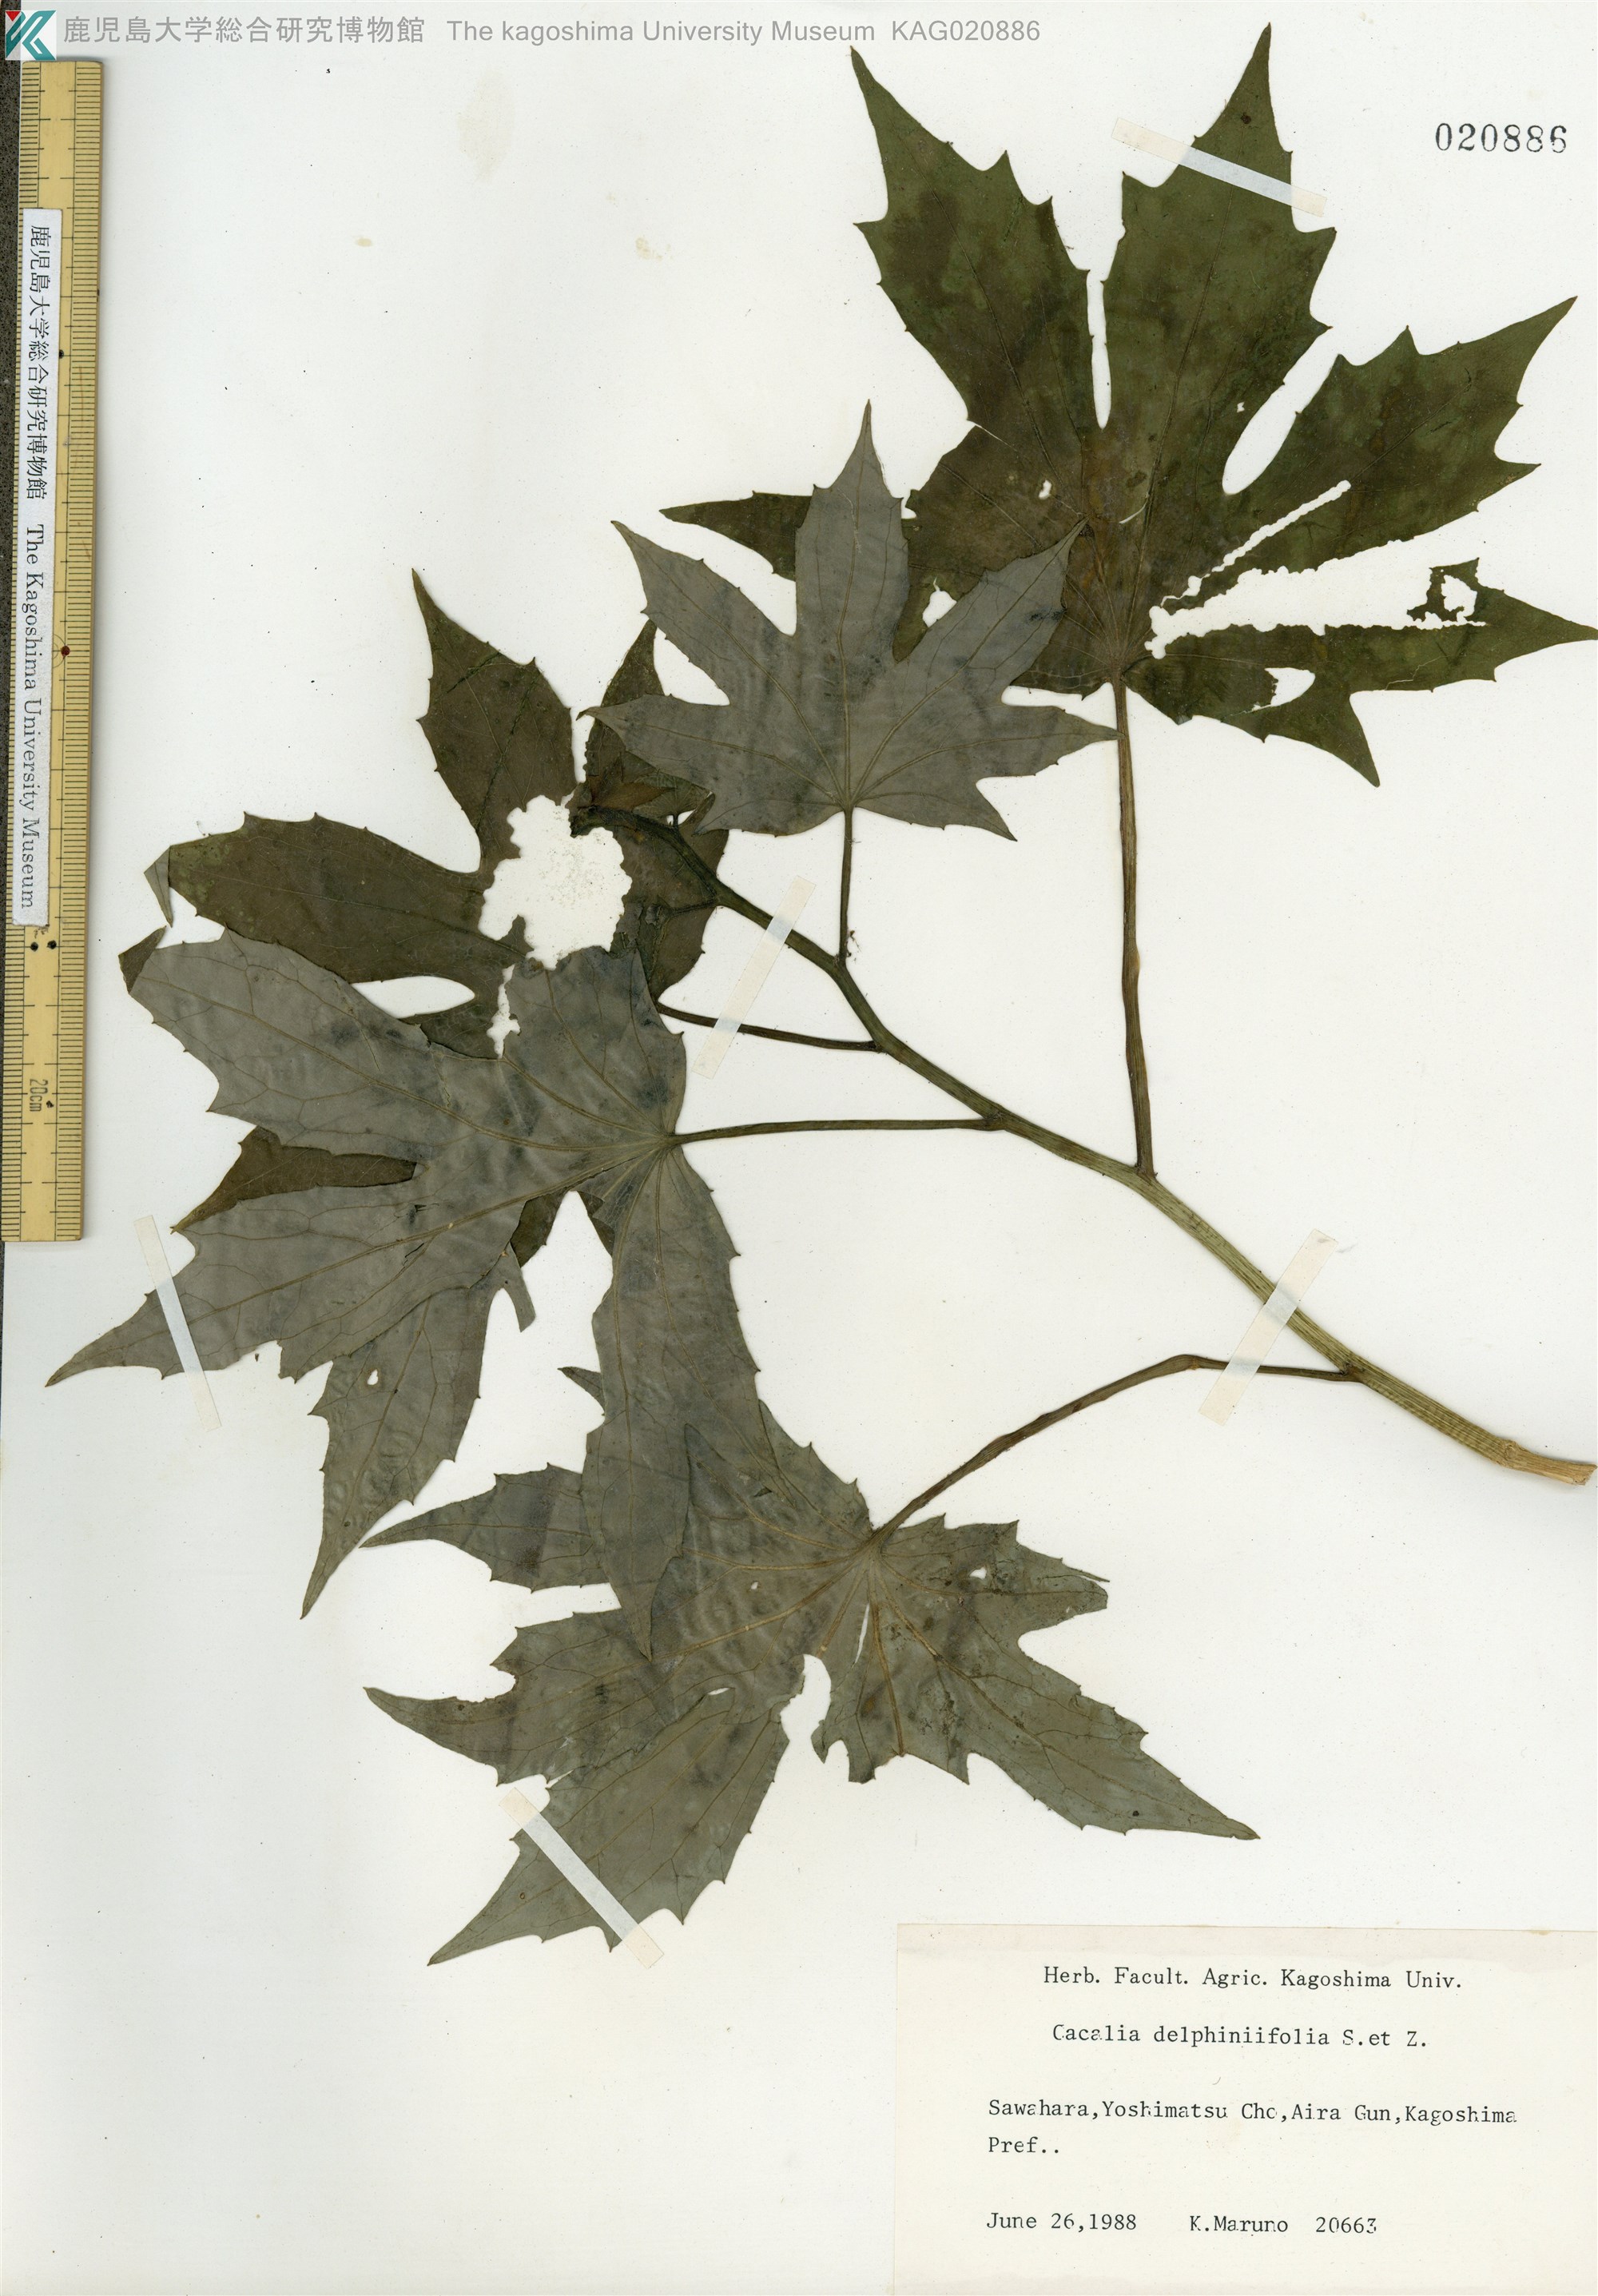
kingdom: Plantae
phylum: Tracheophyta
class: Magnoliopsida
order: Asterales
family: Asteraceae
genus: Japonicalia
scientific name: Japonicalia delphiniifolia
